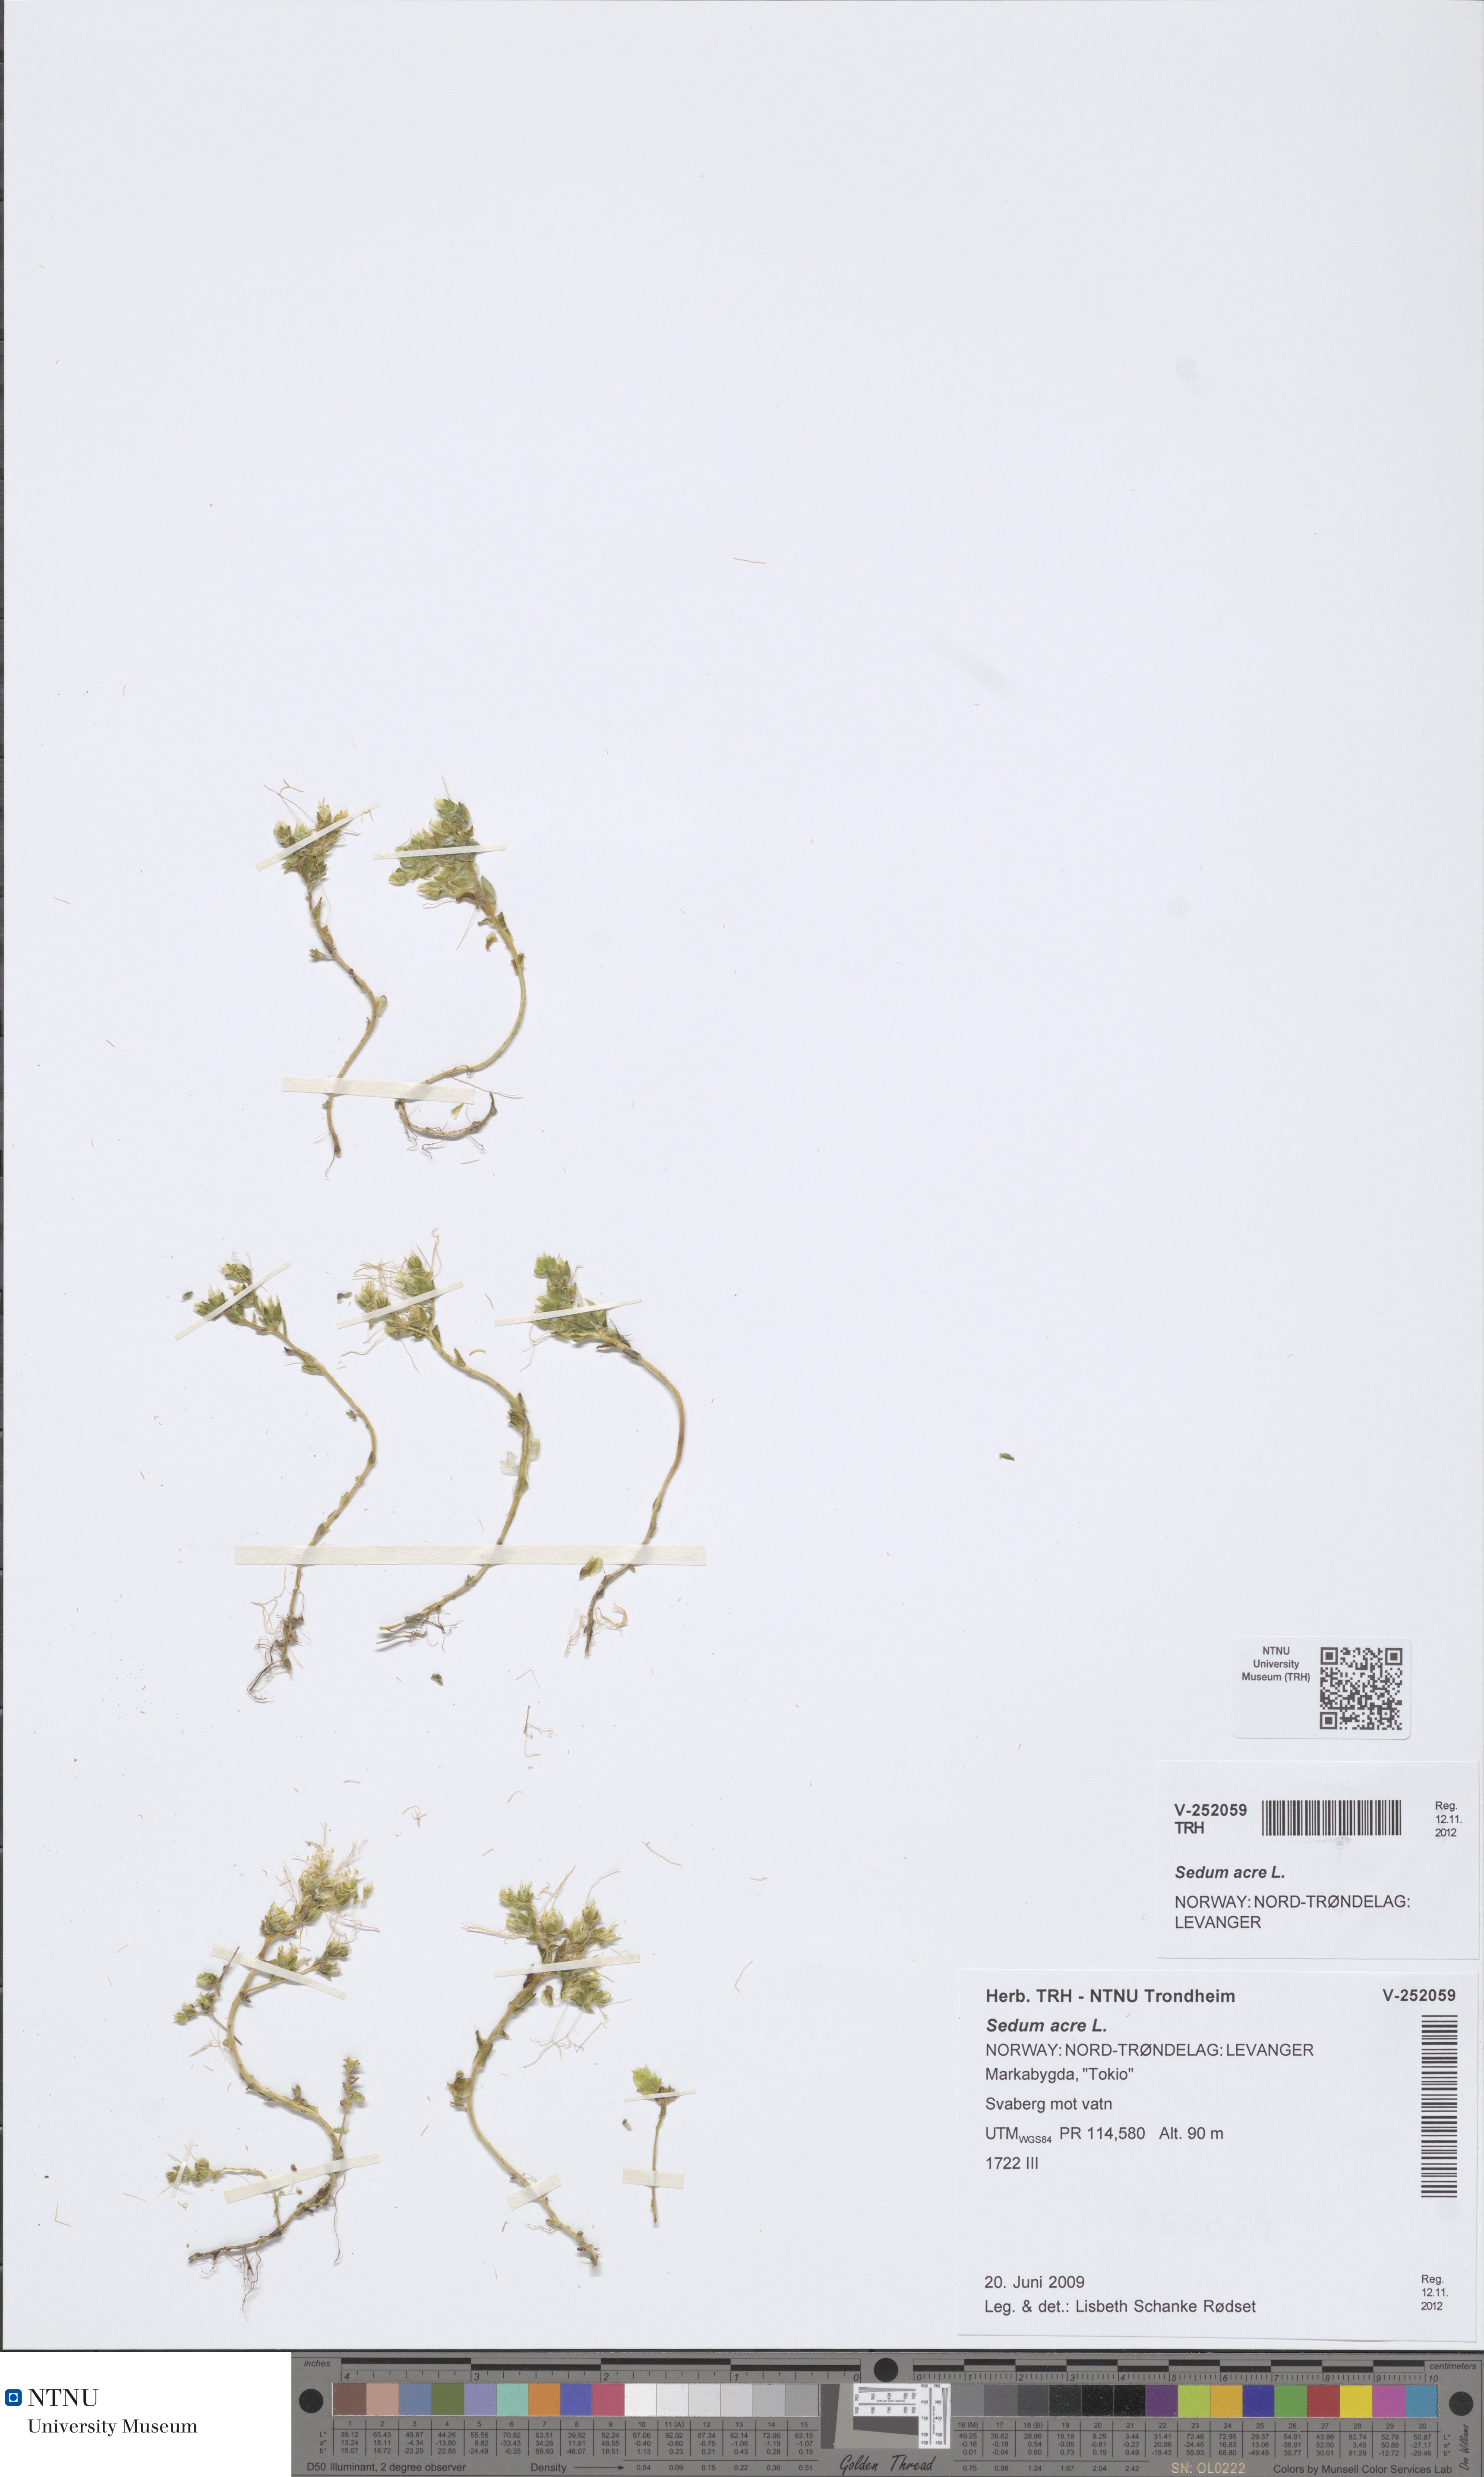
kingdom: Plantae
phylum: Tracheophyta
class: Magnoliopsida
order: Saxifragales
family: Crassulaceae
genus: Sedum
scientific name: Sedum acre
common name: Biting stonecrop
